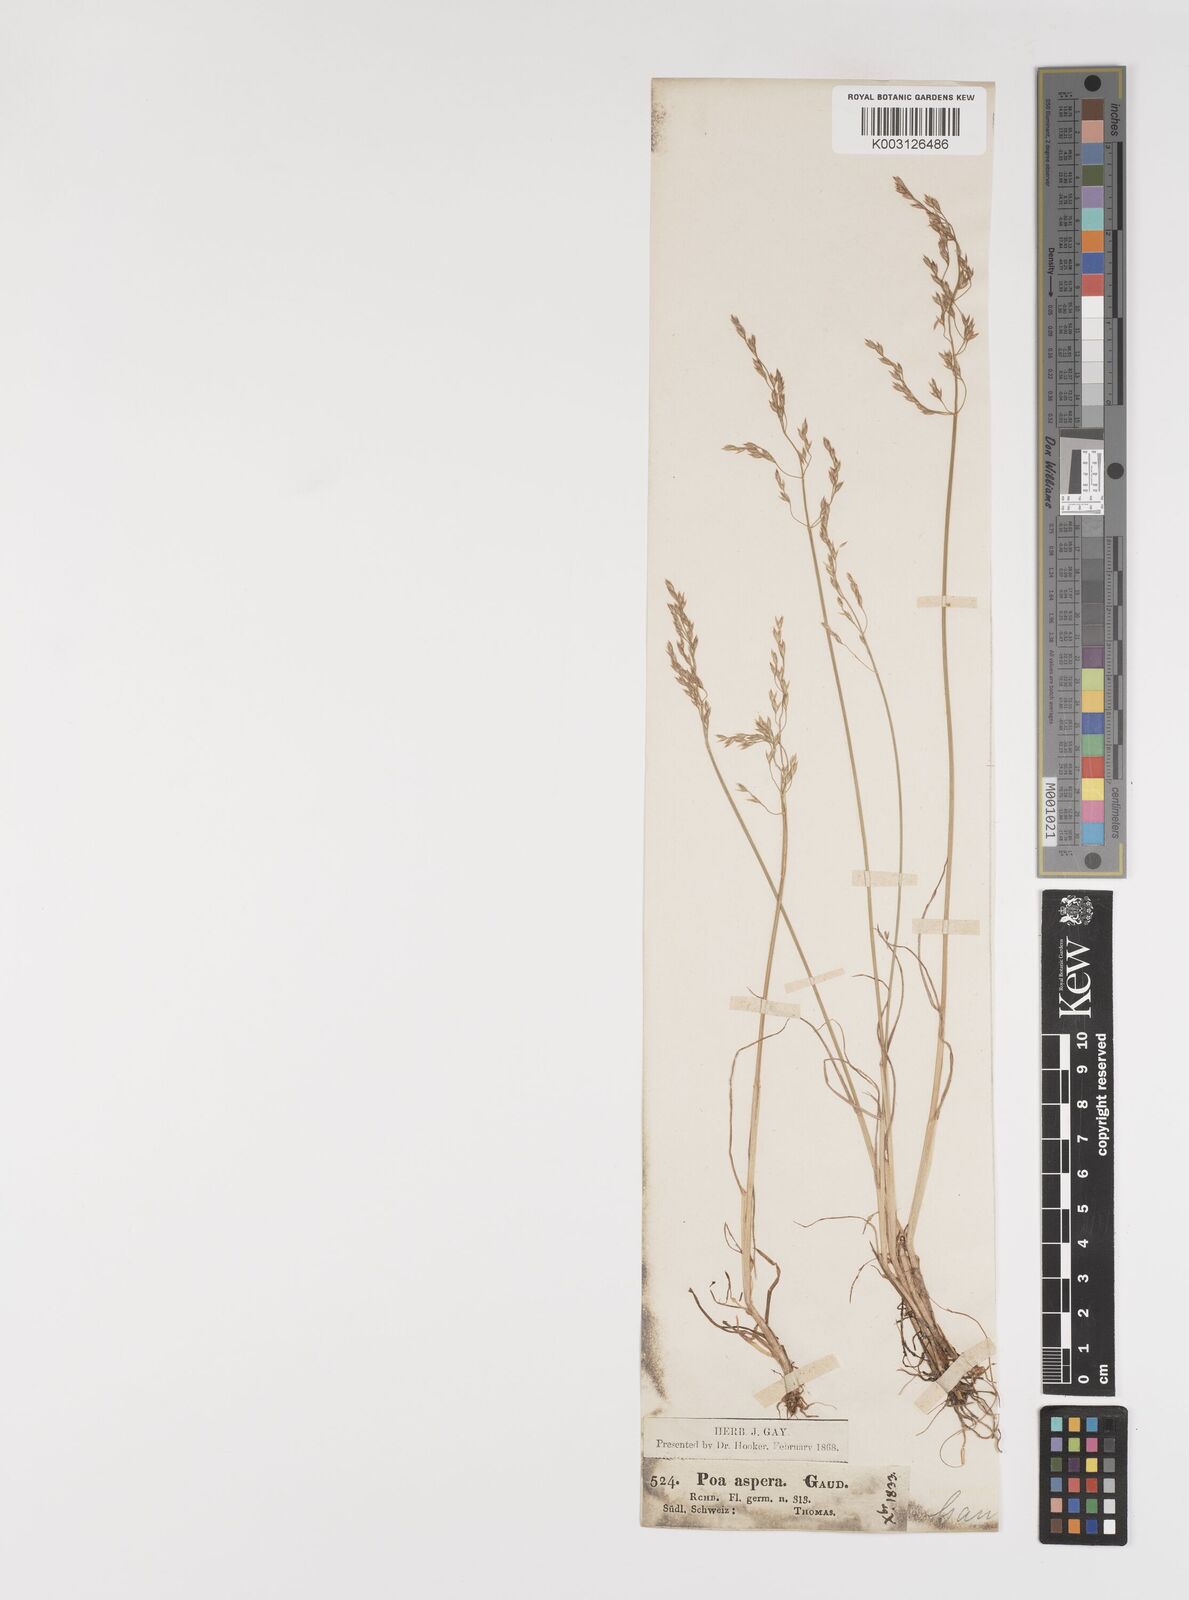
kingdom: Plantae
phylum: Tracheophyta
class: Liliopsida
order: Poales
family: Poaceae
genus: Poa
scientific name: Poa nemoralis
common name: Wood bluegrass
